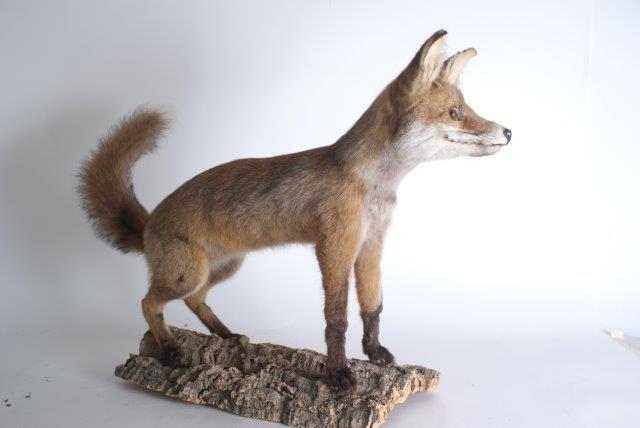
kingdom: Animalia
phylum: Chordata
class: Mammalia
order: Carnivora
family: Canidae
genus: Vulpes
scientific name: Vulpes vulpes
